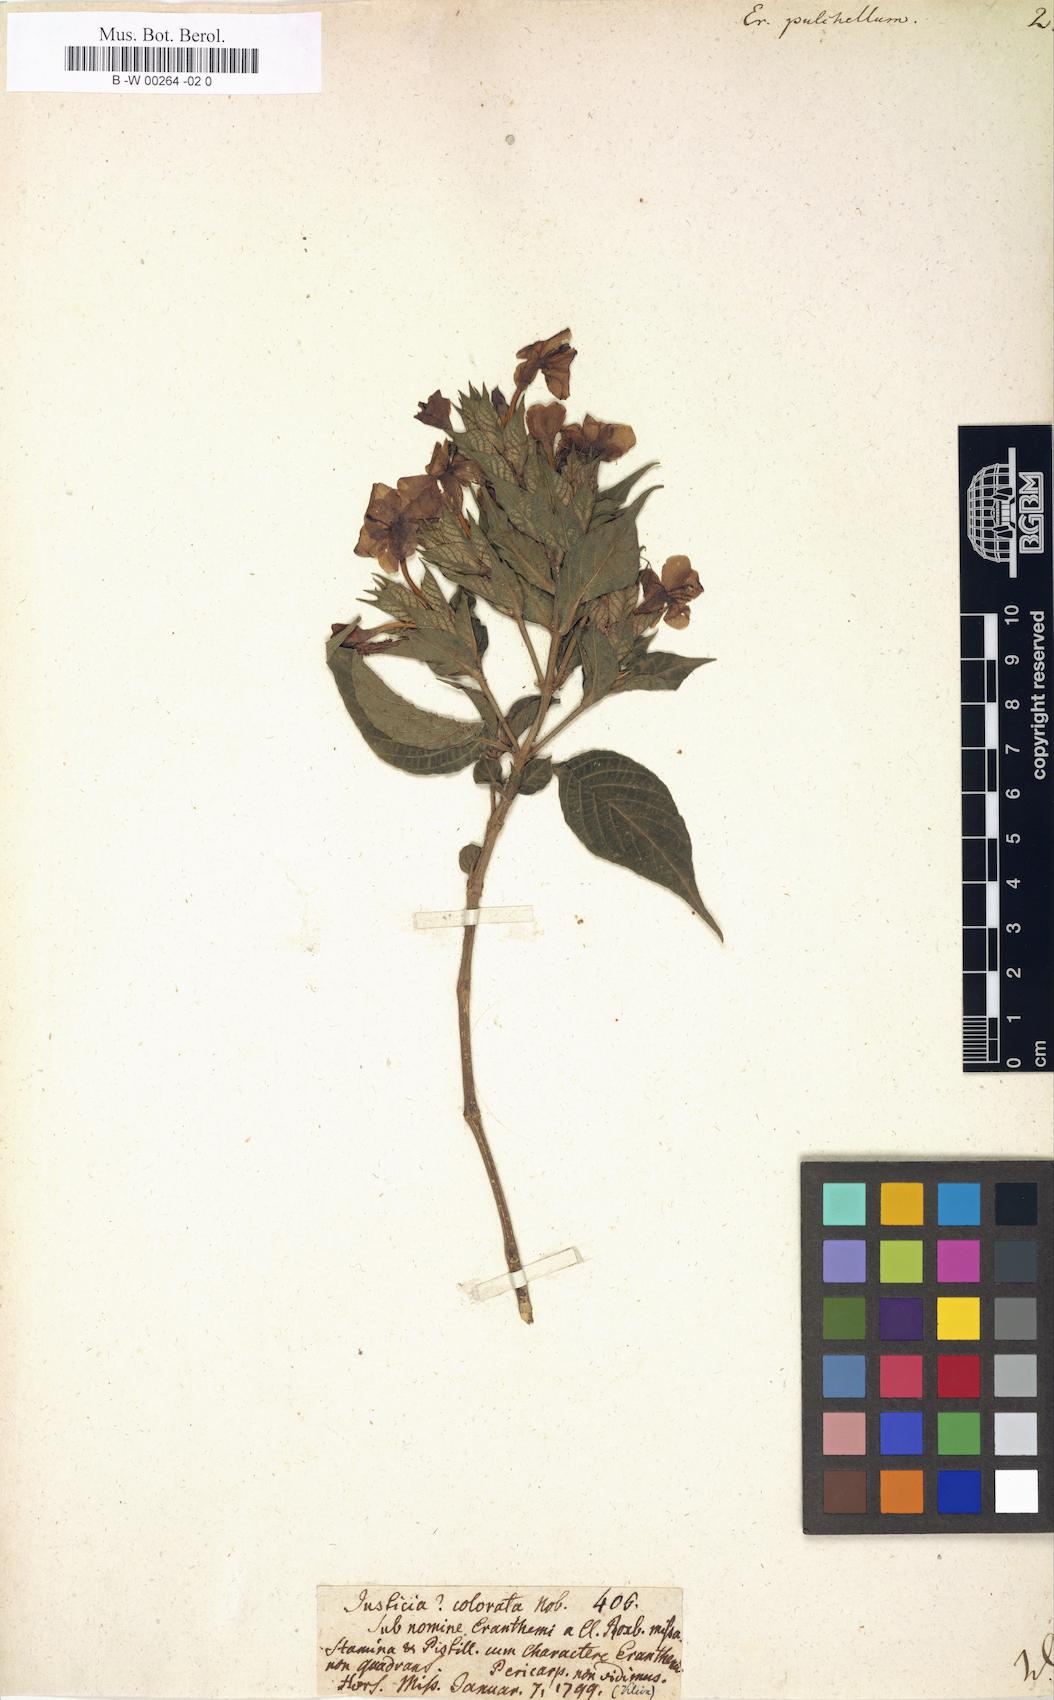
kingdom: Plantae
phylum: Tracheophyta
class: Magnoliopsida
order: Lamiales
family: Acanthaceae
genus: Eranthemum
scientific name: Eranthemum pulchellum
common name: Blue-sage
